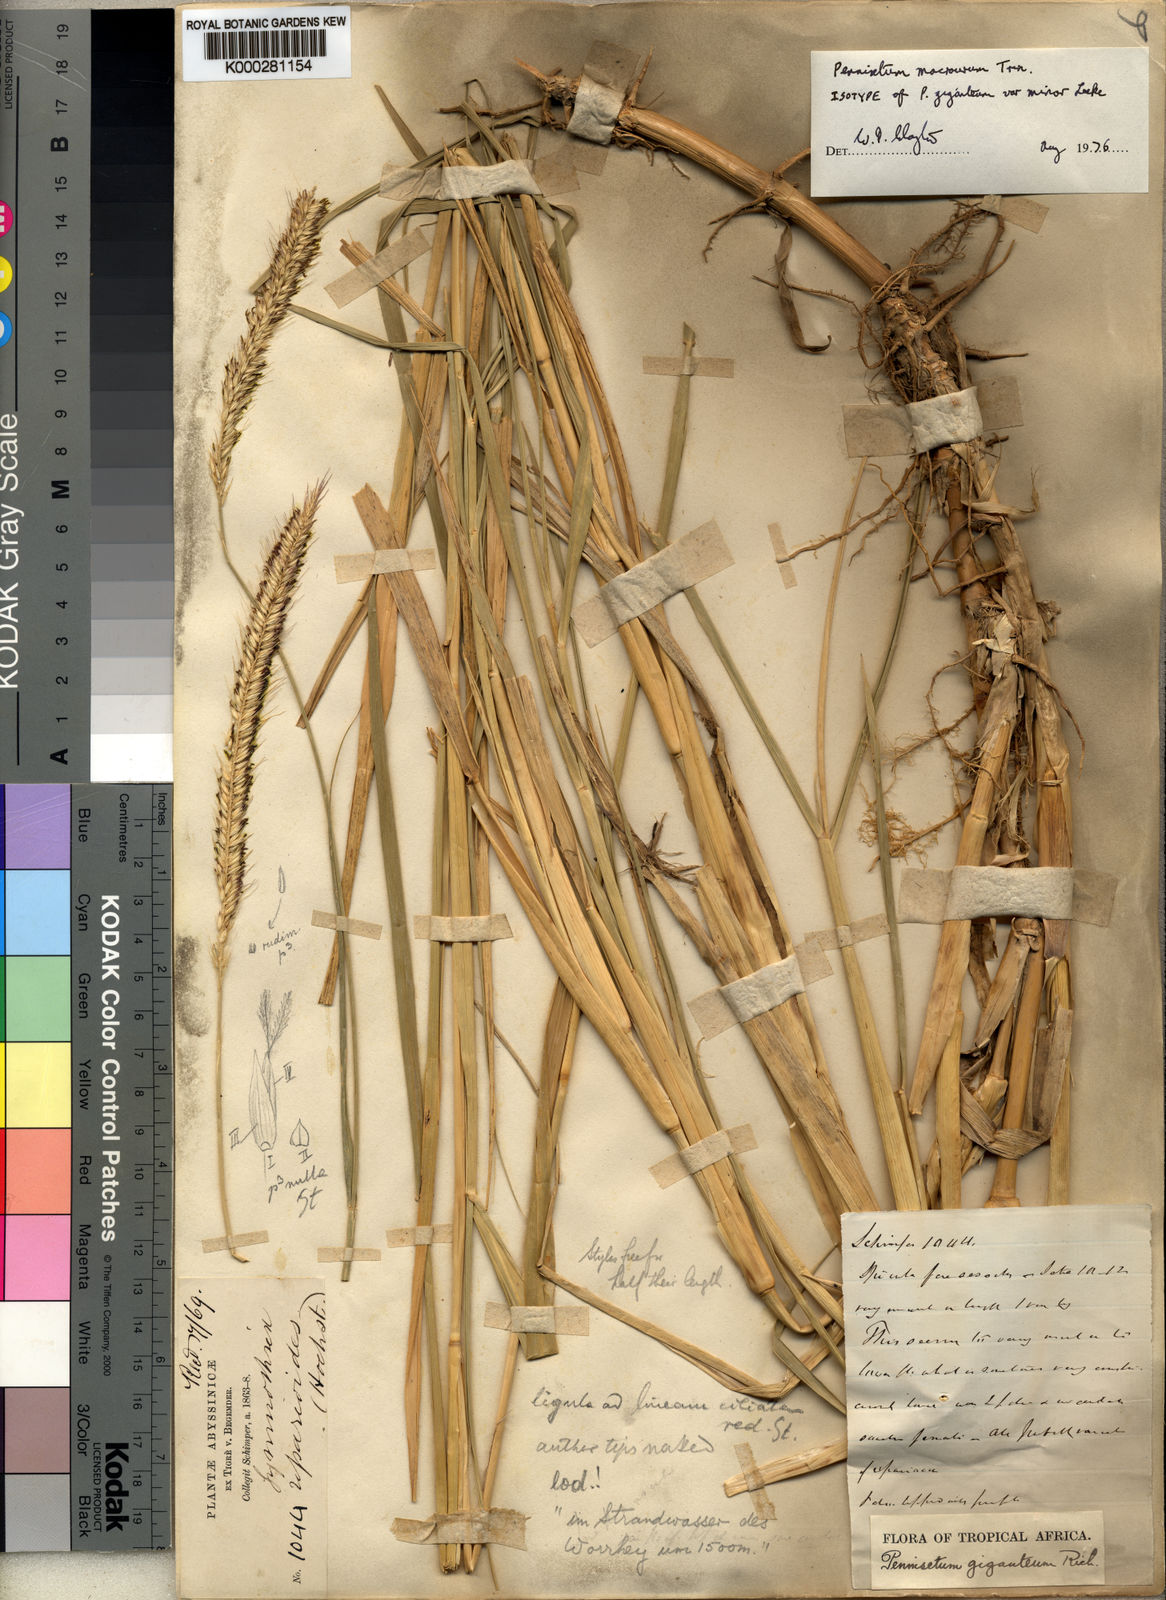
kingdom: Plantae
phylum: Tracheophyta
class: Liliopsida
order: Poales
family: Poaceae
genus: Cenchrus
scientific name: Cenchrus caudatus
